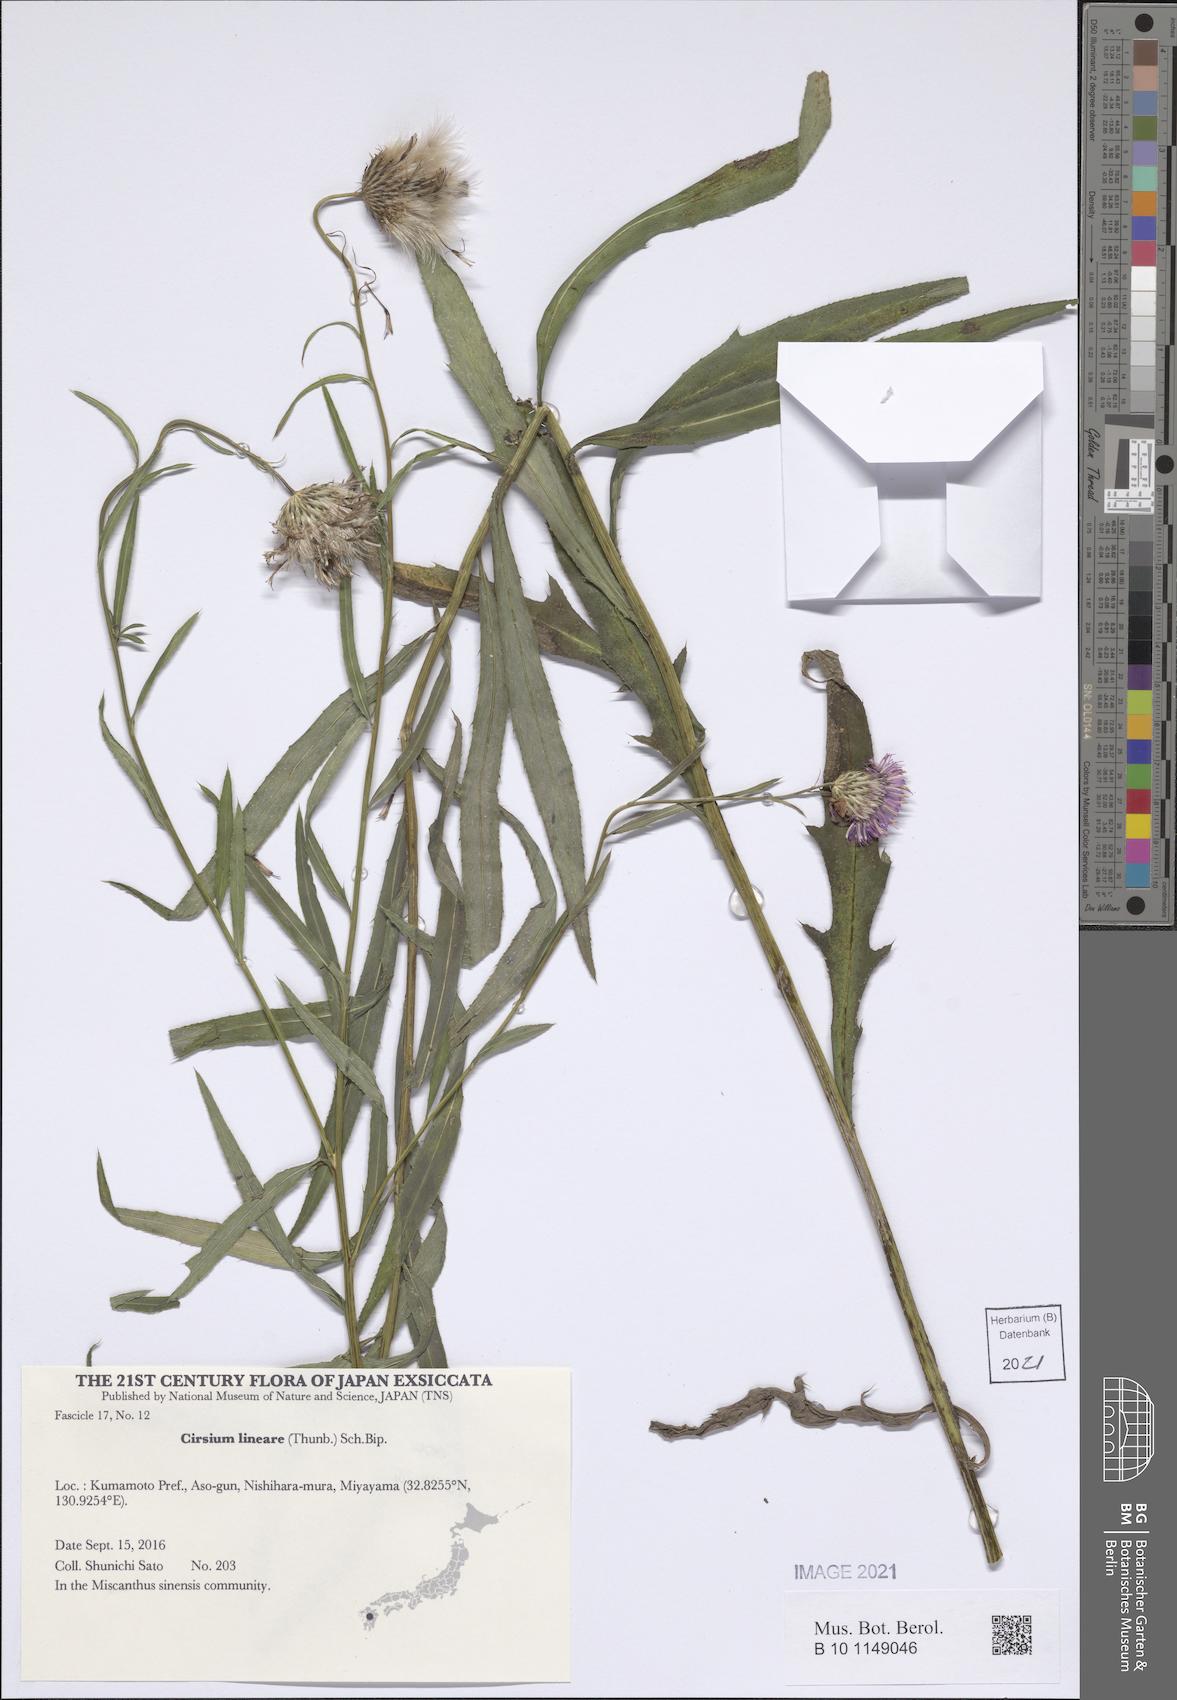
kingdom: Plantae
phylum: Tracheophyta
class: Magnoliopsida
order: Asterales
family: Asteraceae
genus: Cirsium
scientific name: Cirsium lineare
